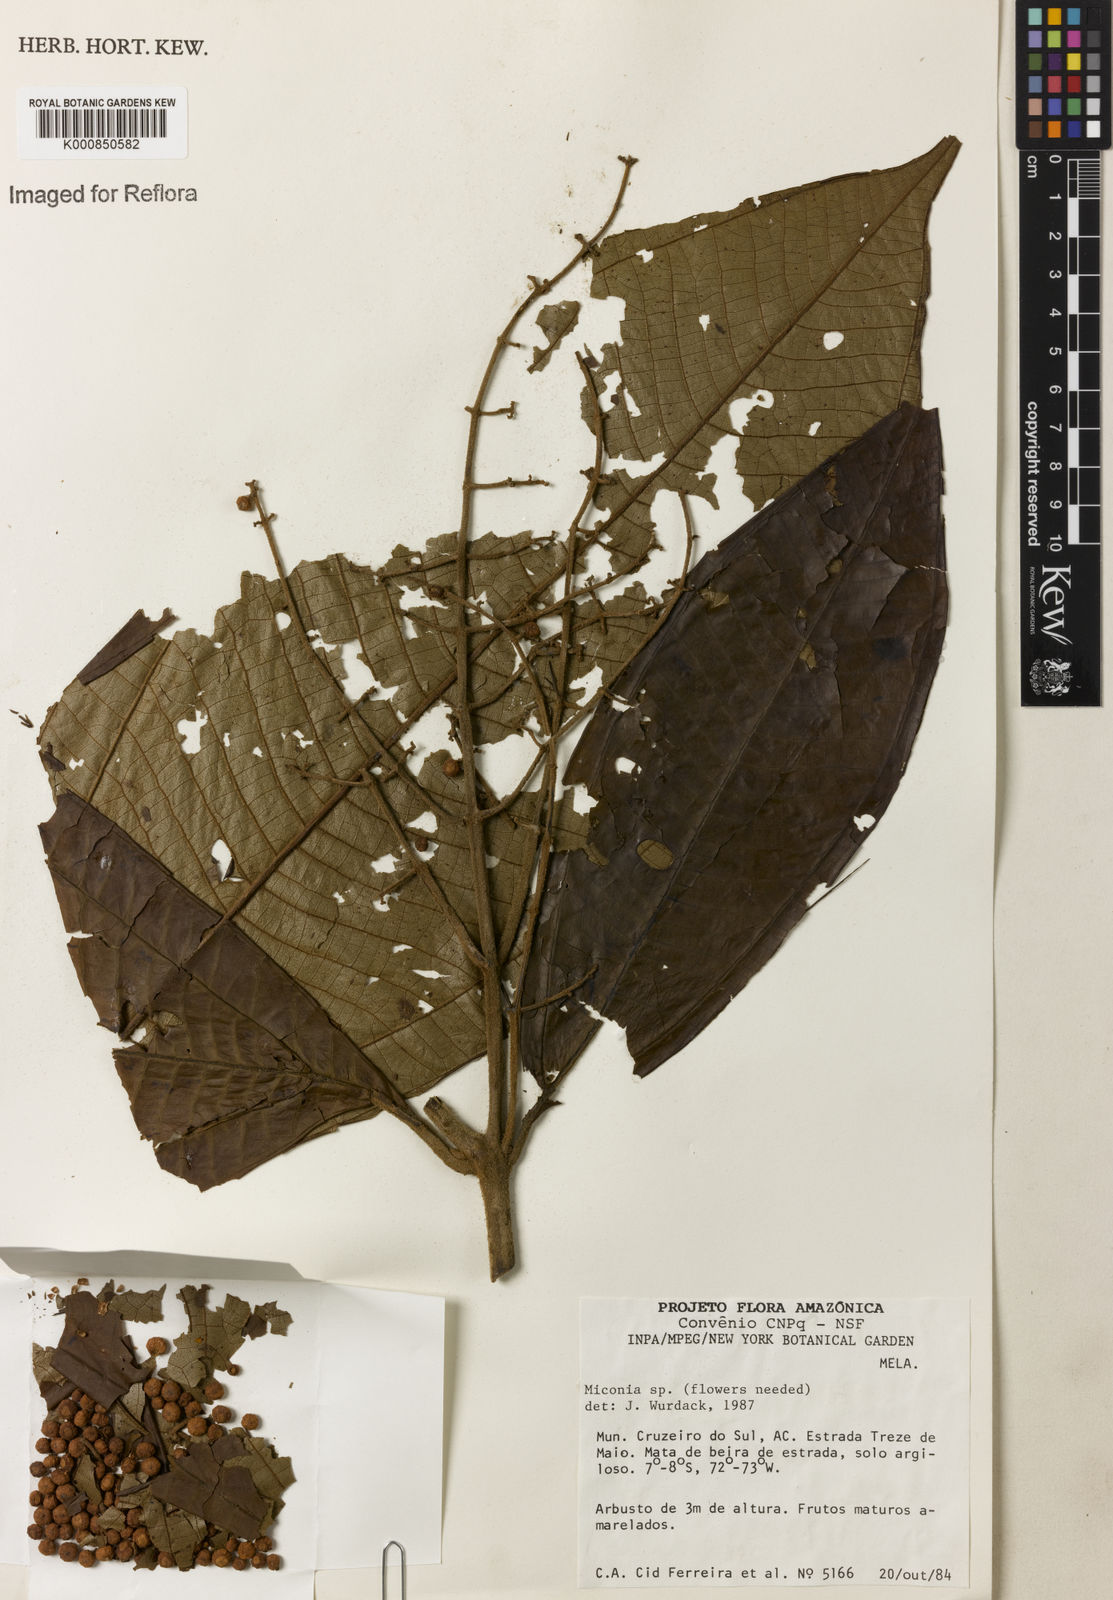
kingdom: Plantae
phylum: Tracheophyta
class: Magnoliopsida
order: Myrtales
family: Melastomataceae
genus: Miconia
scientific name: Miconia
